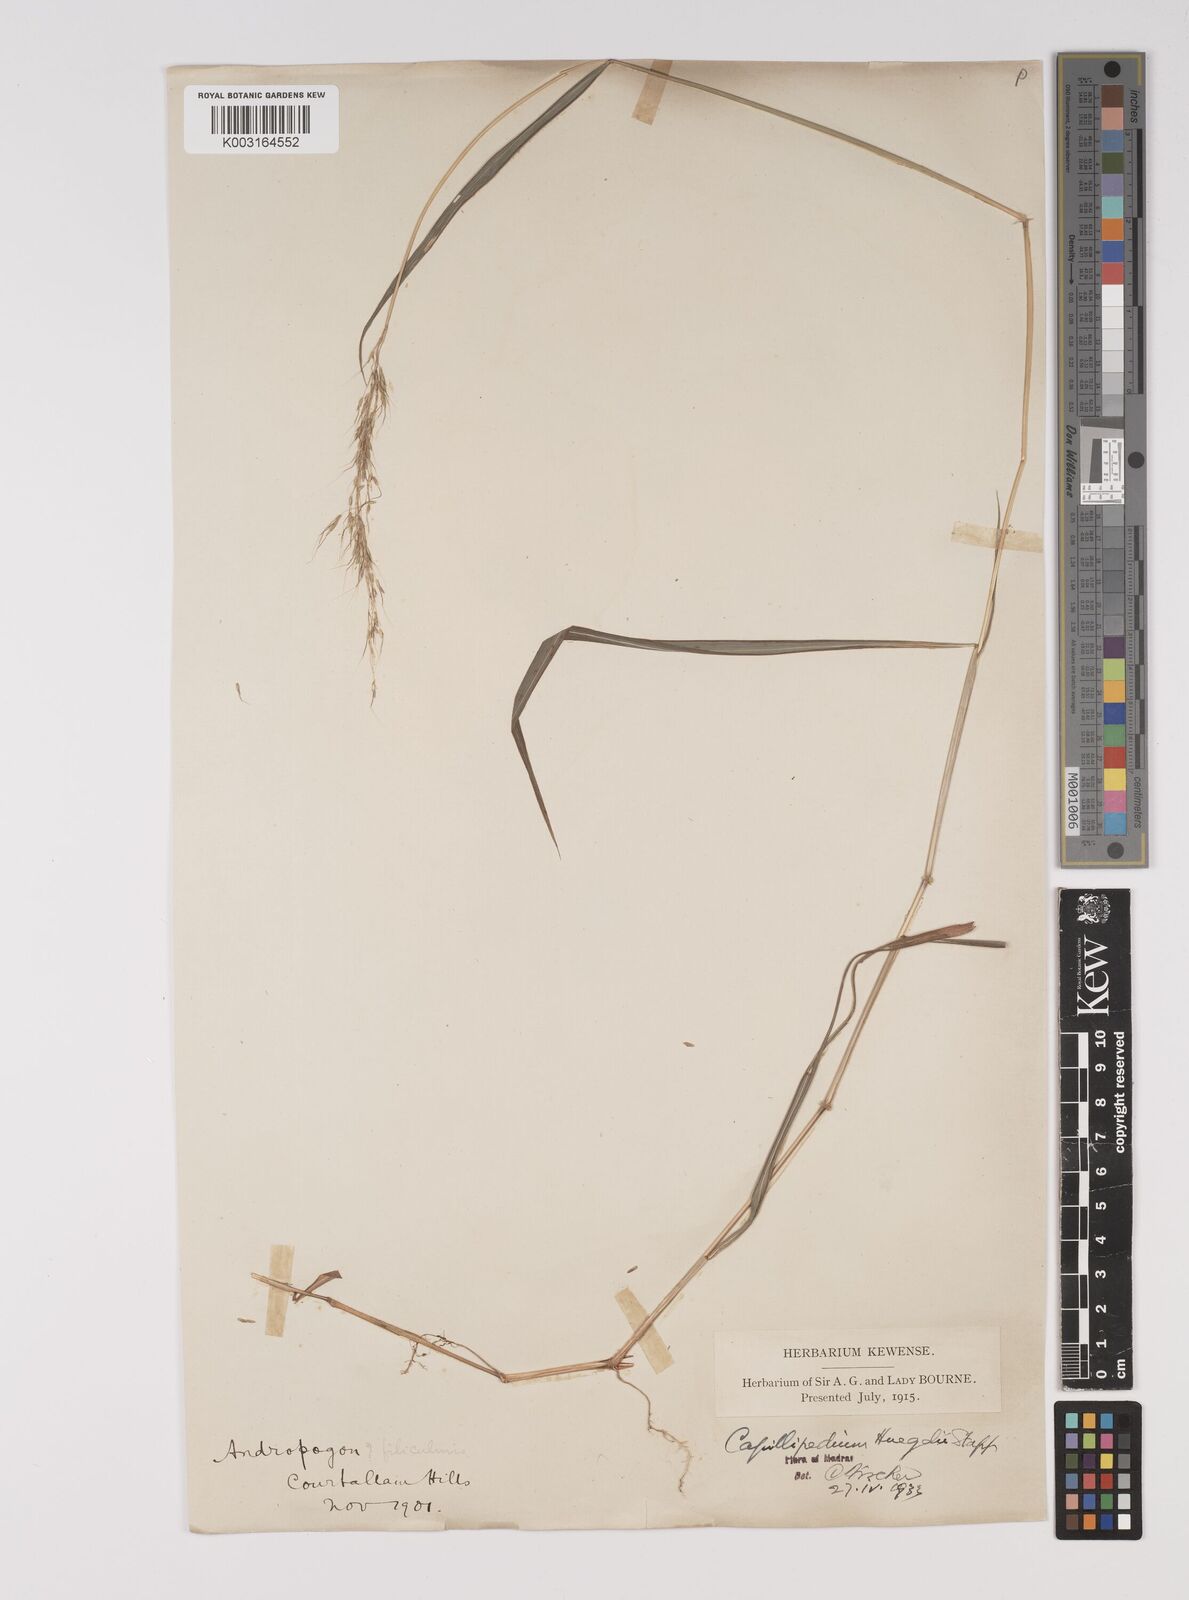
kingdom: Plantae
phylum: Tracheophyta
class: Liliopsida
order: Poales
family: Poaceae
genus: Capillipedium
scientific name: Capillipedium huegelii
